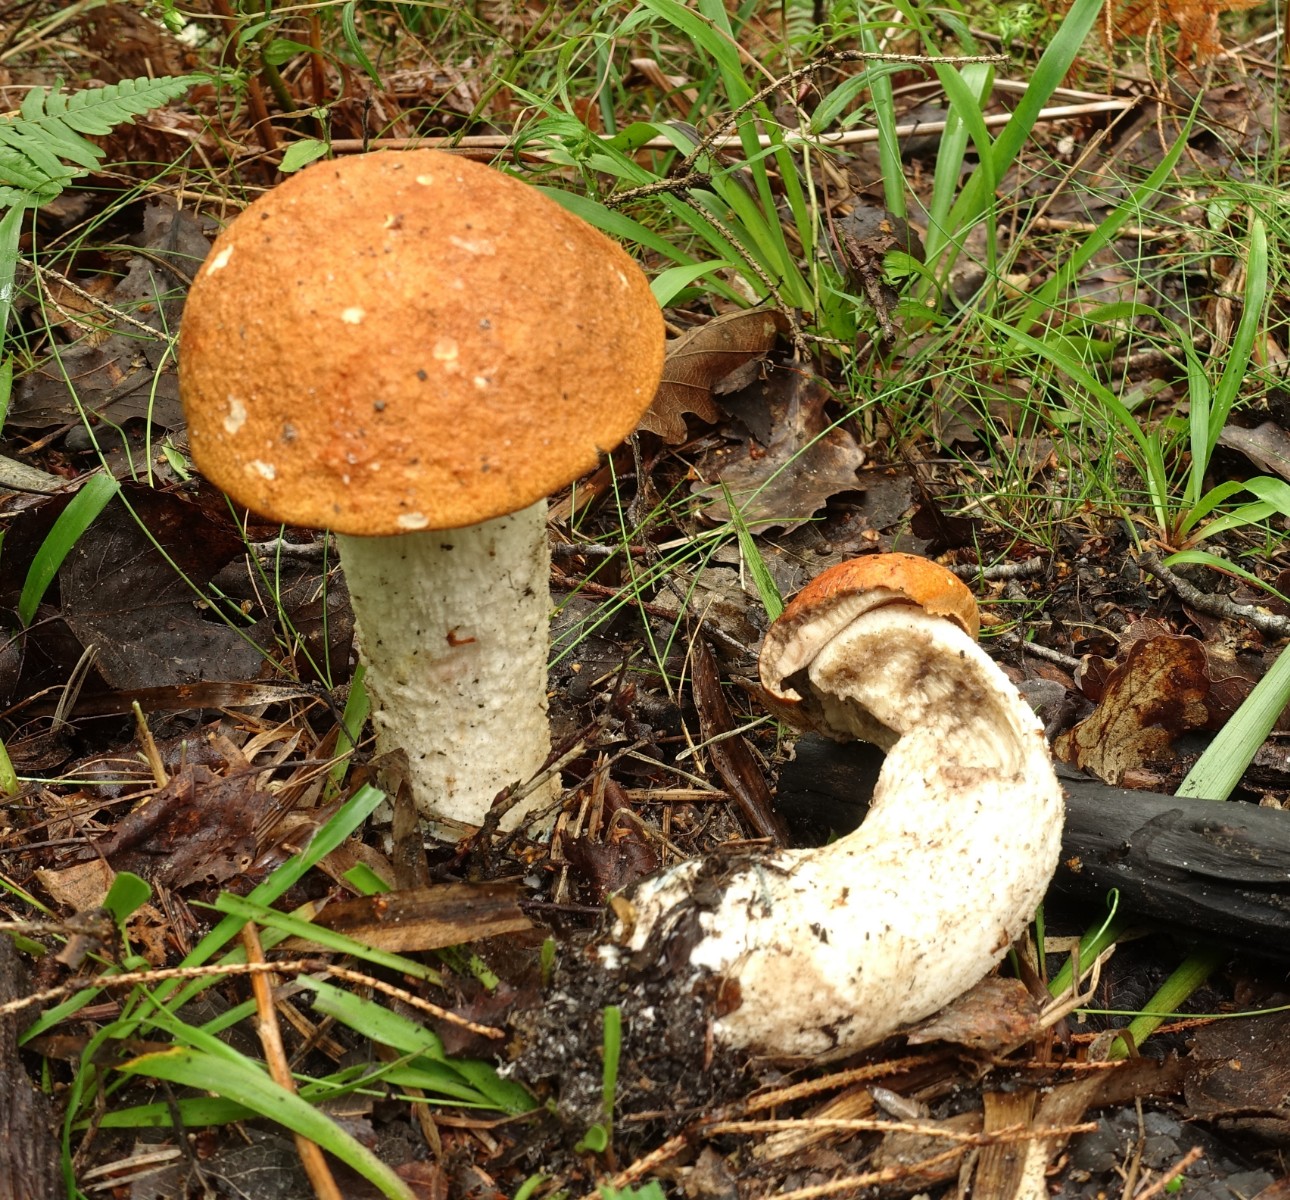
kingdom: Fungi
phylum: Basidiomycota
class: Agaricomycetes
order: Boletales
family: Boletaceae
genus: Leccinum
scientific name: Leccinum albostipitatum
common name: aspe-skælrørhat
